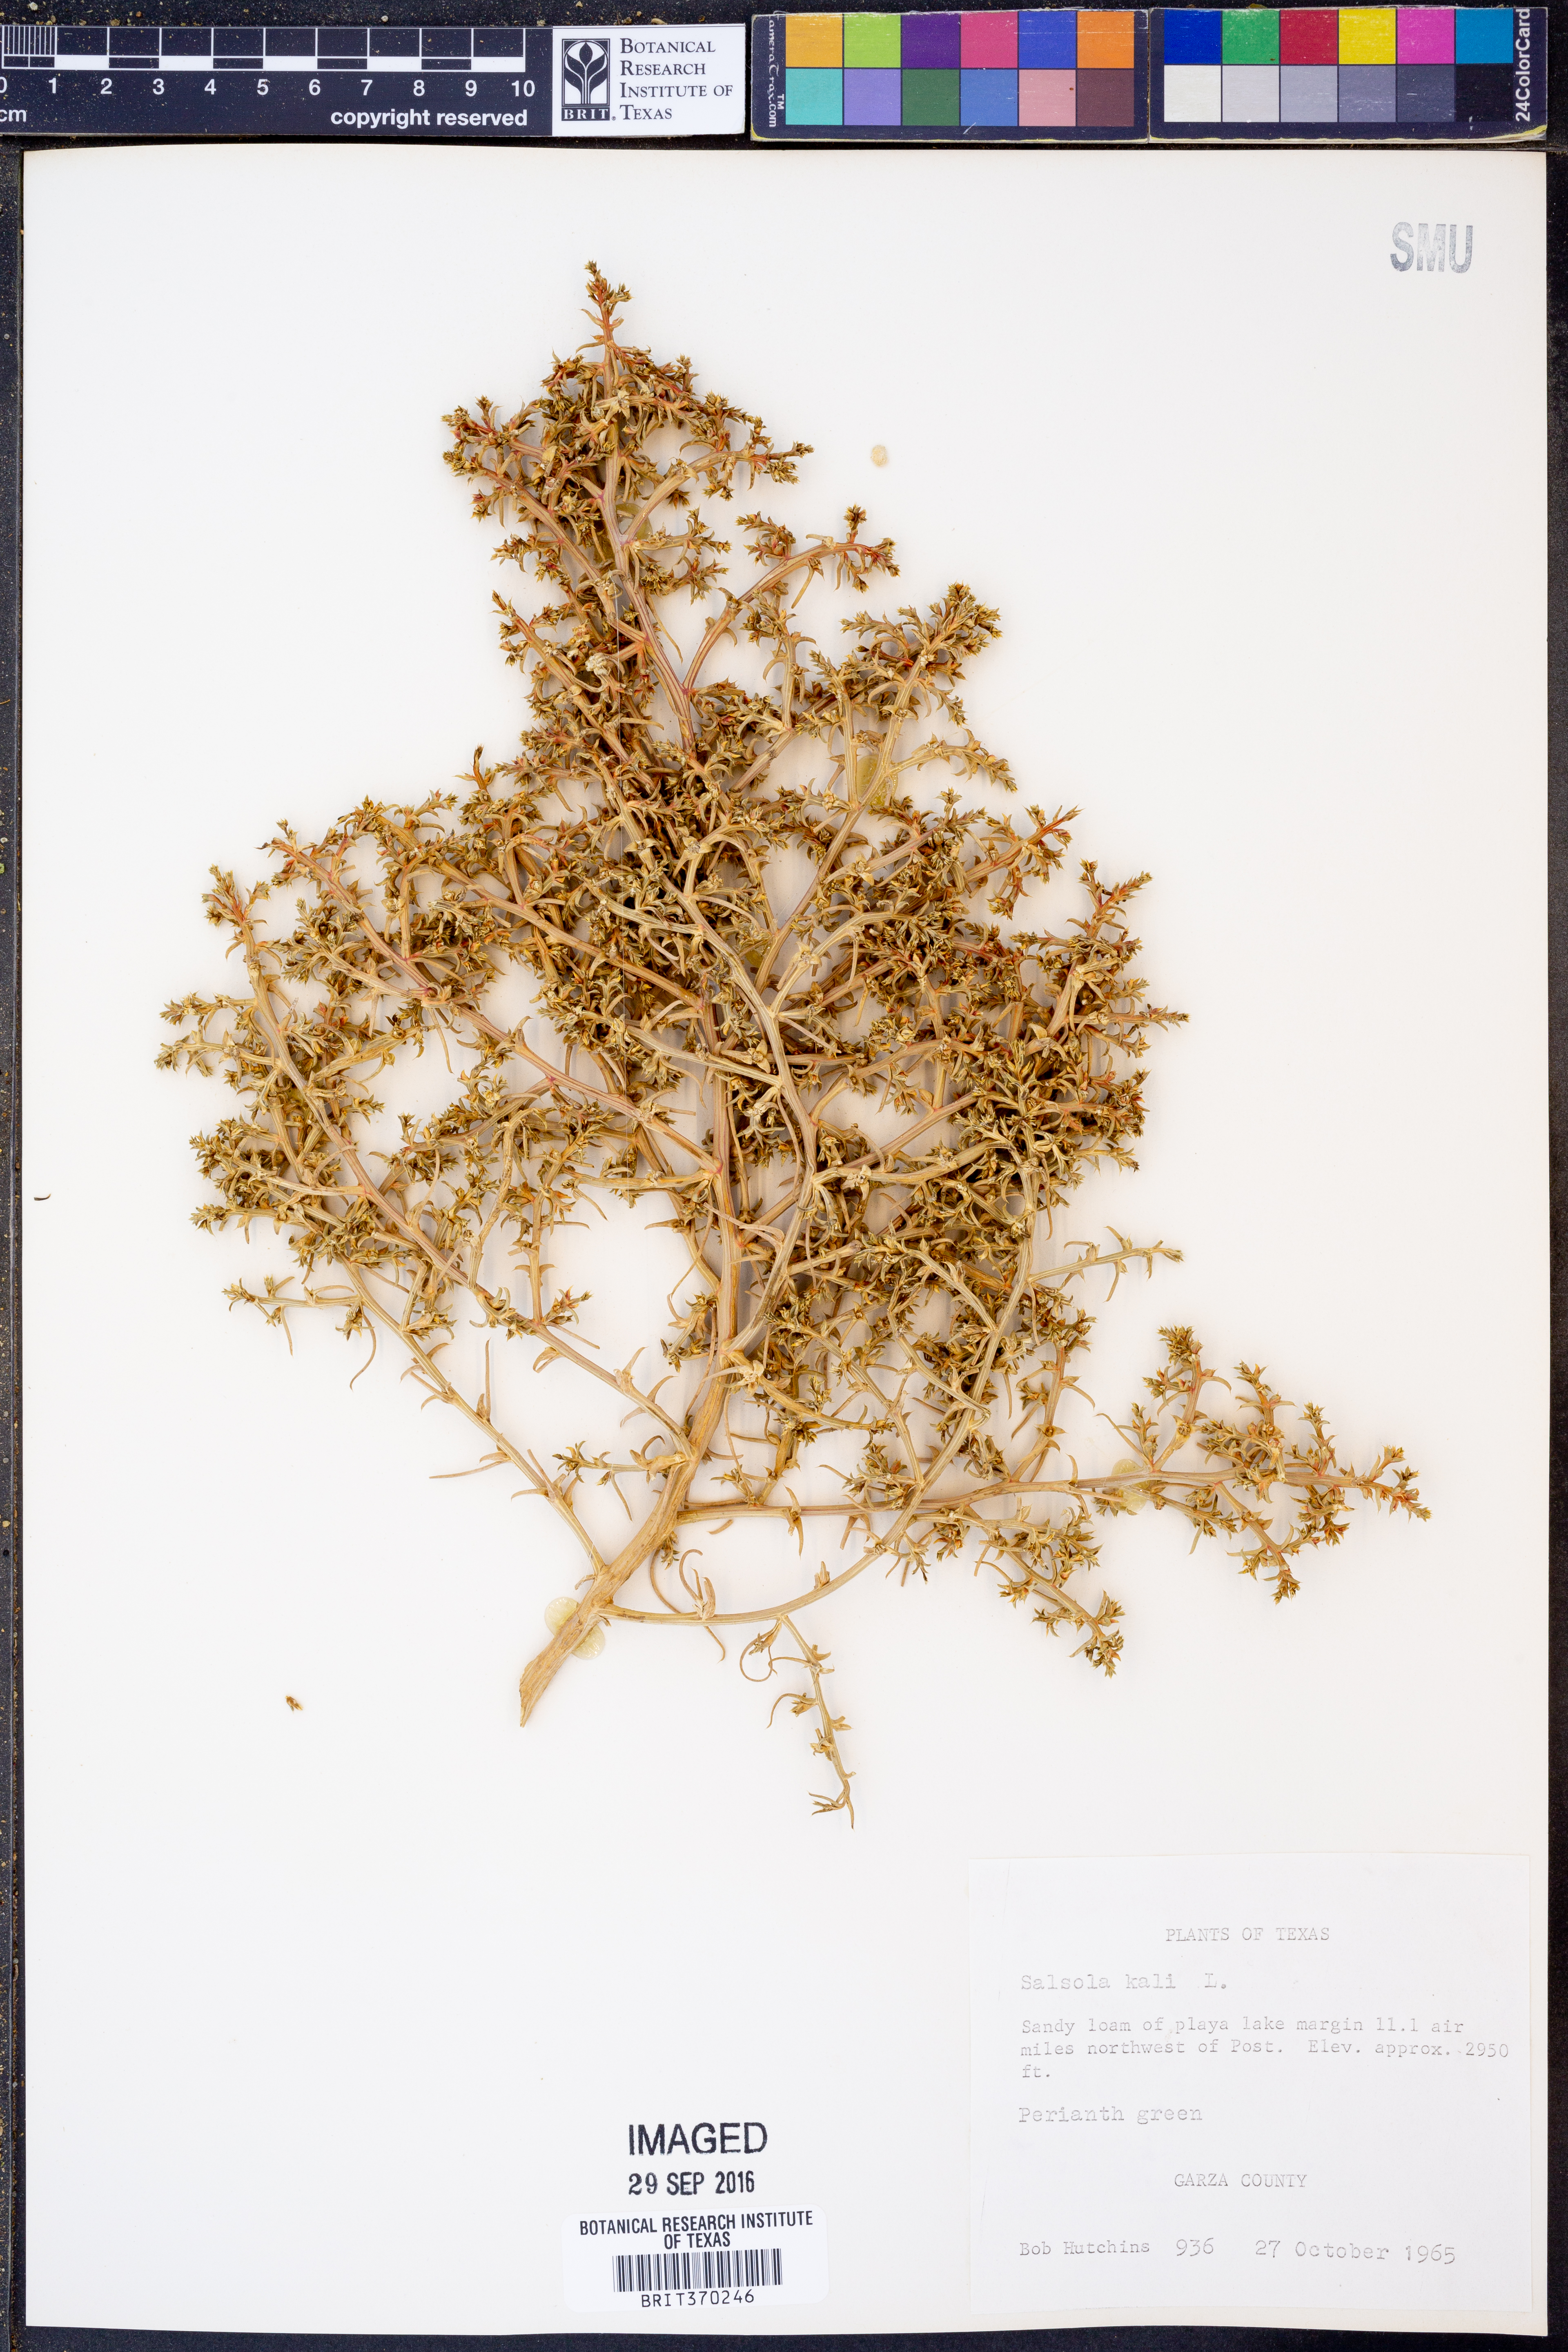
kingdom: Plantae
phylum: Tracheophyta
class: Magnoliopsida
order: Caryophyllales
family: Amaranthaceae
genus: Salsola
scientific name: Salsola kali
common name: Saltwort
